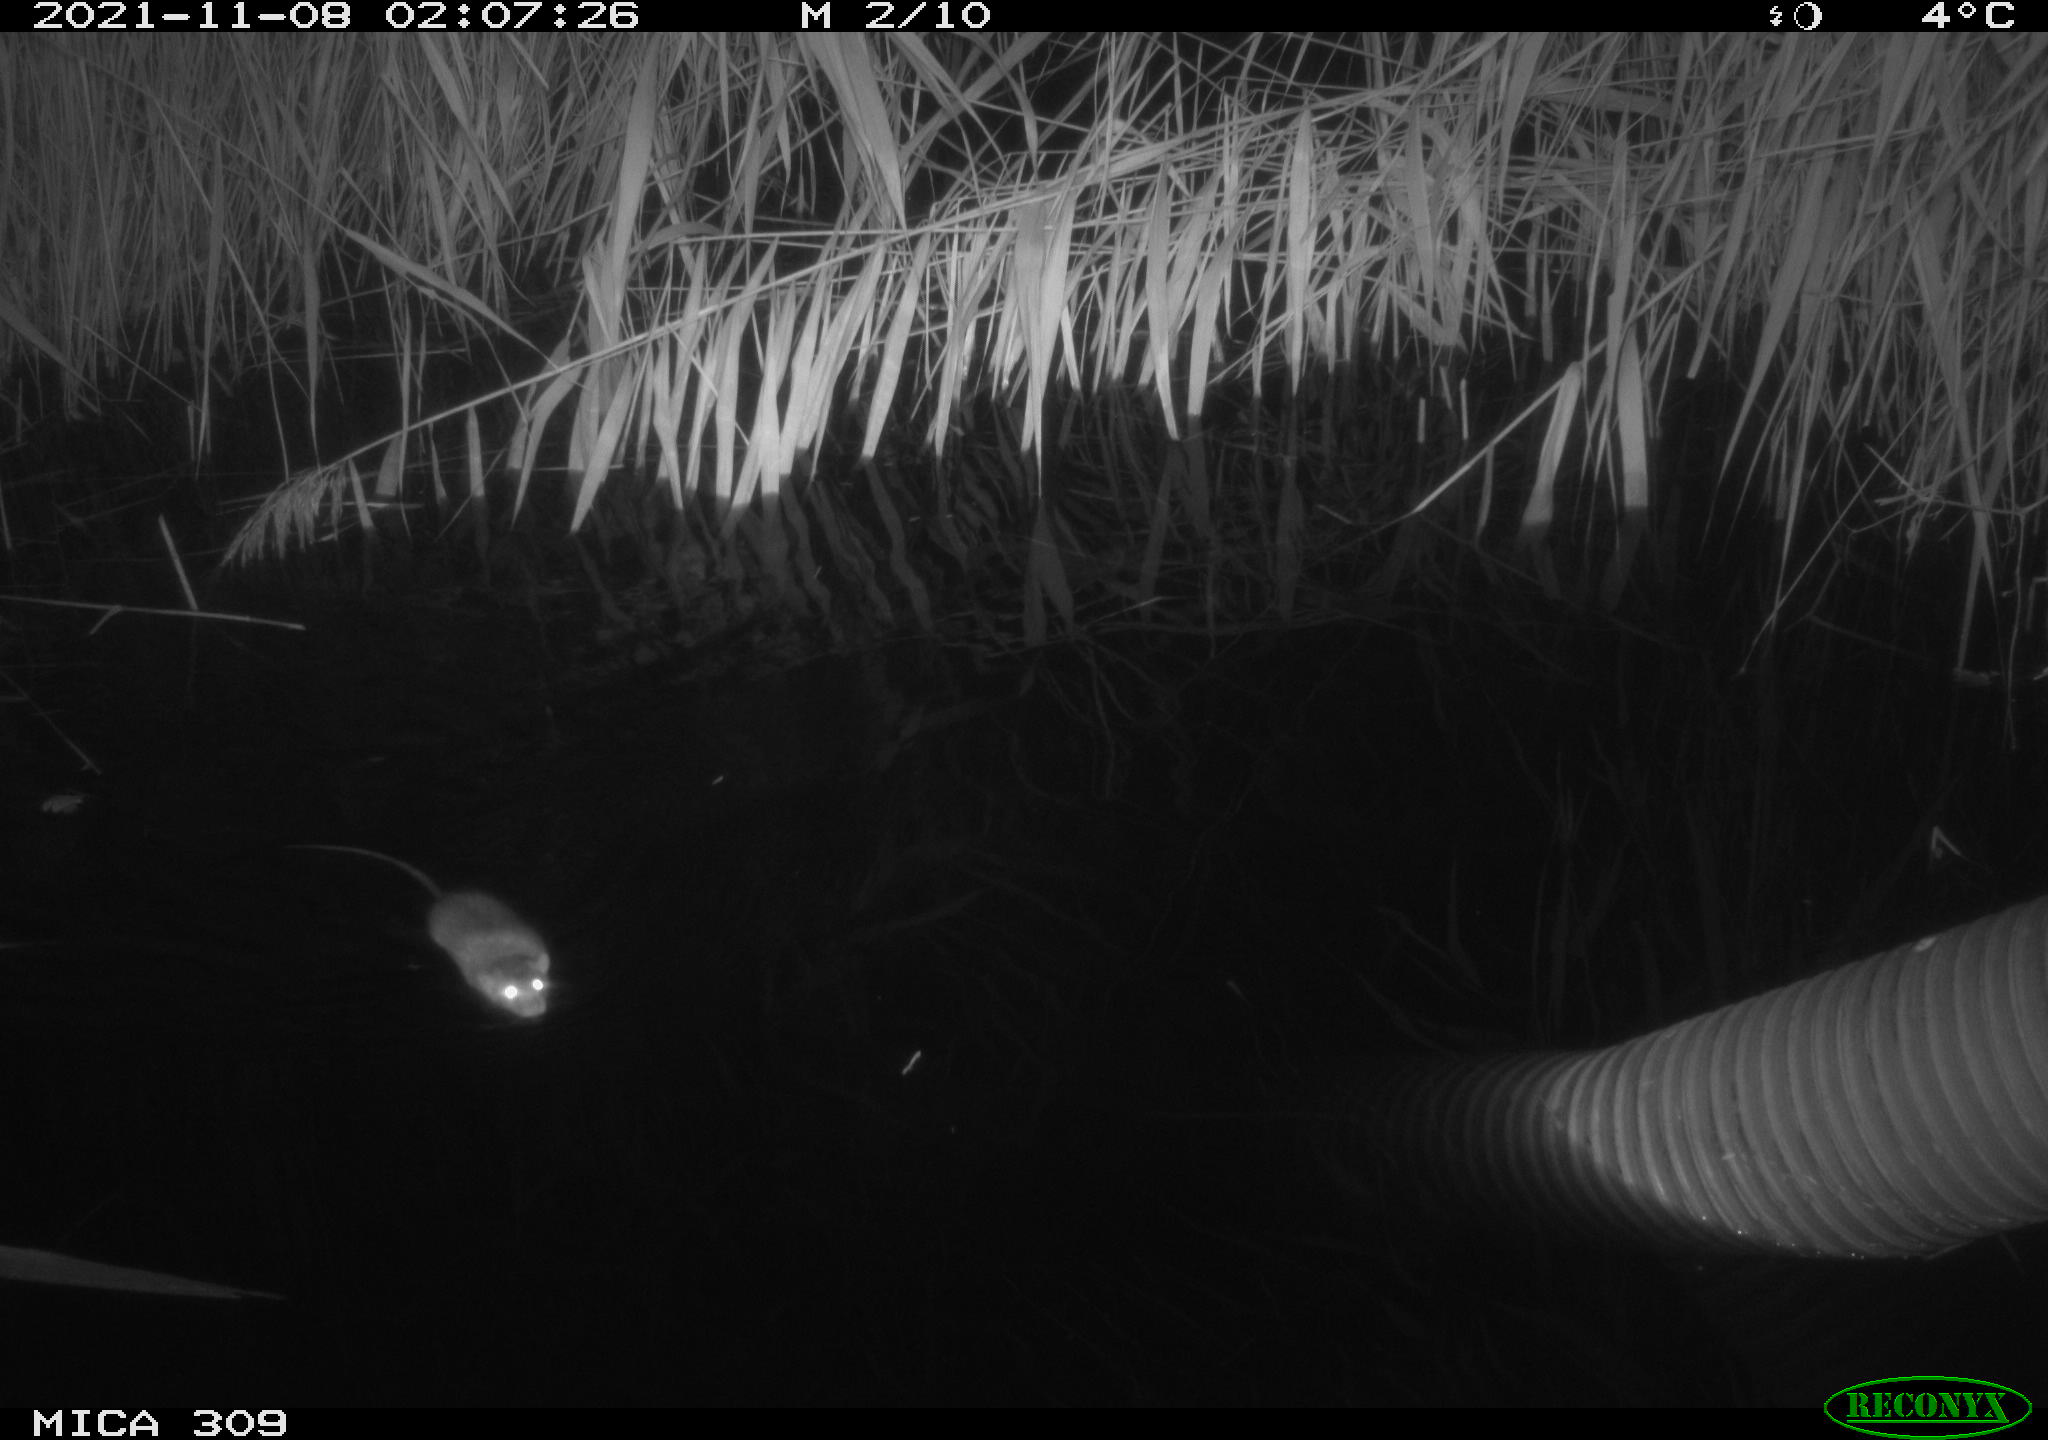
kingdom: Animalia
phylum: Chordata
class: Mammalia
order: Rodentia
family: Muridae
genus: Rattus
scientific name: Rattus norvegicus
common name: Brown rat
